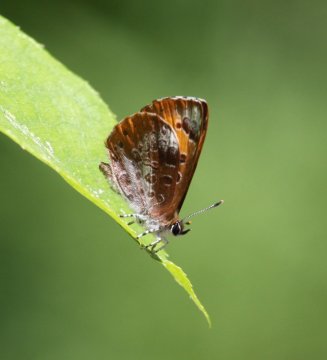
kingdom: Animalia
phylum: Arthropoda
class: Insecta
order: Lepidoptera
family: Lycaenidae
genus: Feniseca
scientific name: Feniseca tarquinius
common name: Harvester
